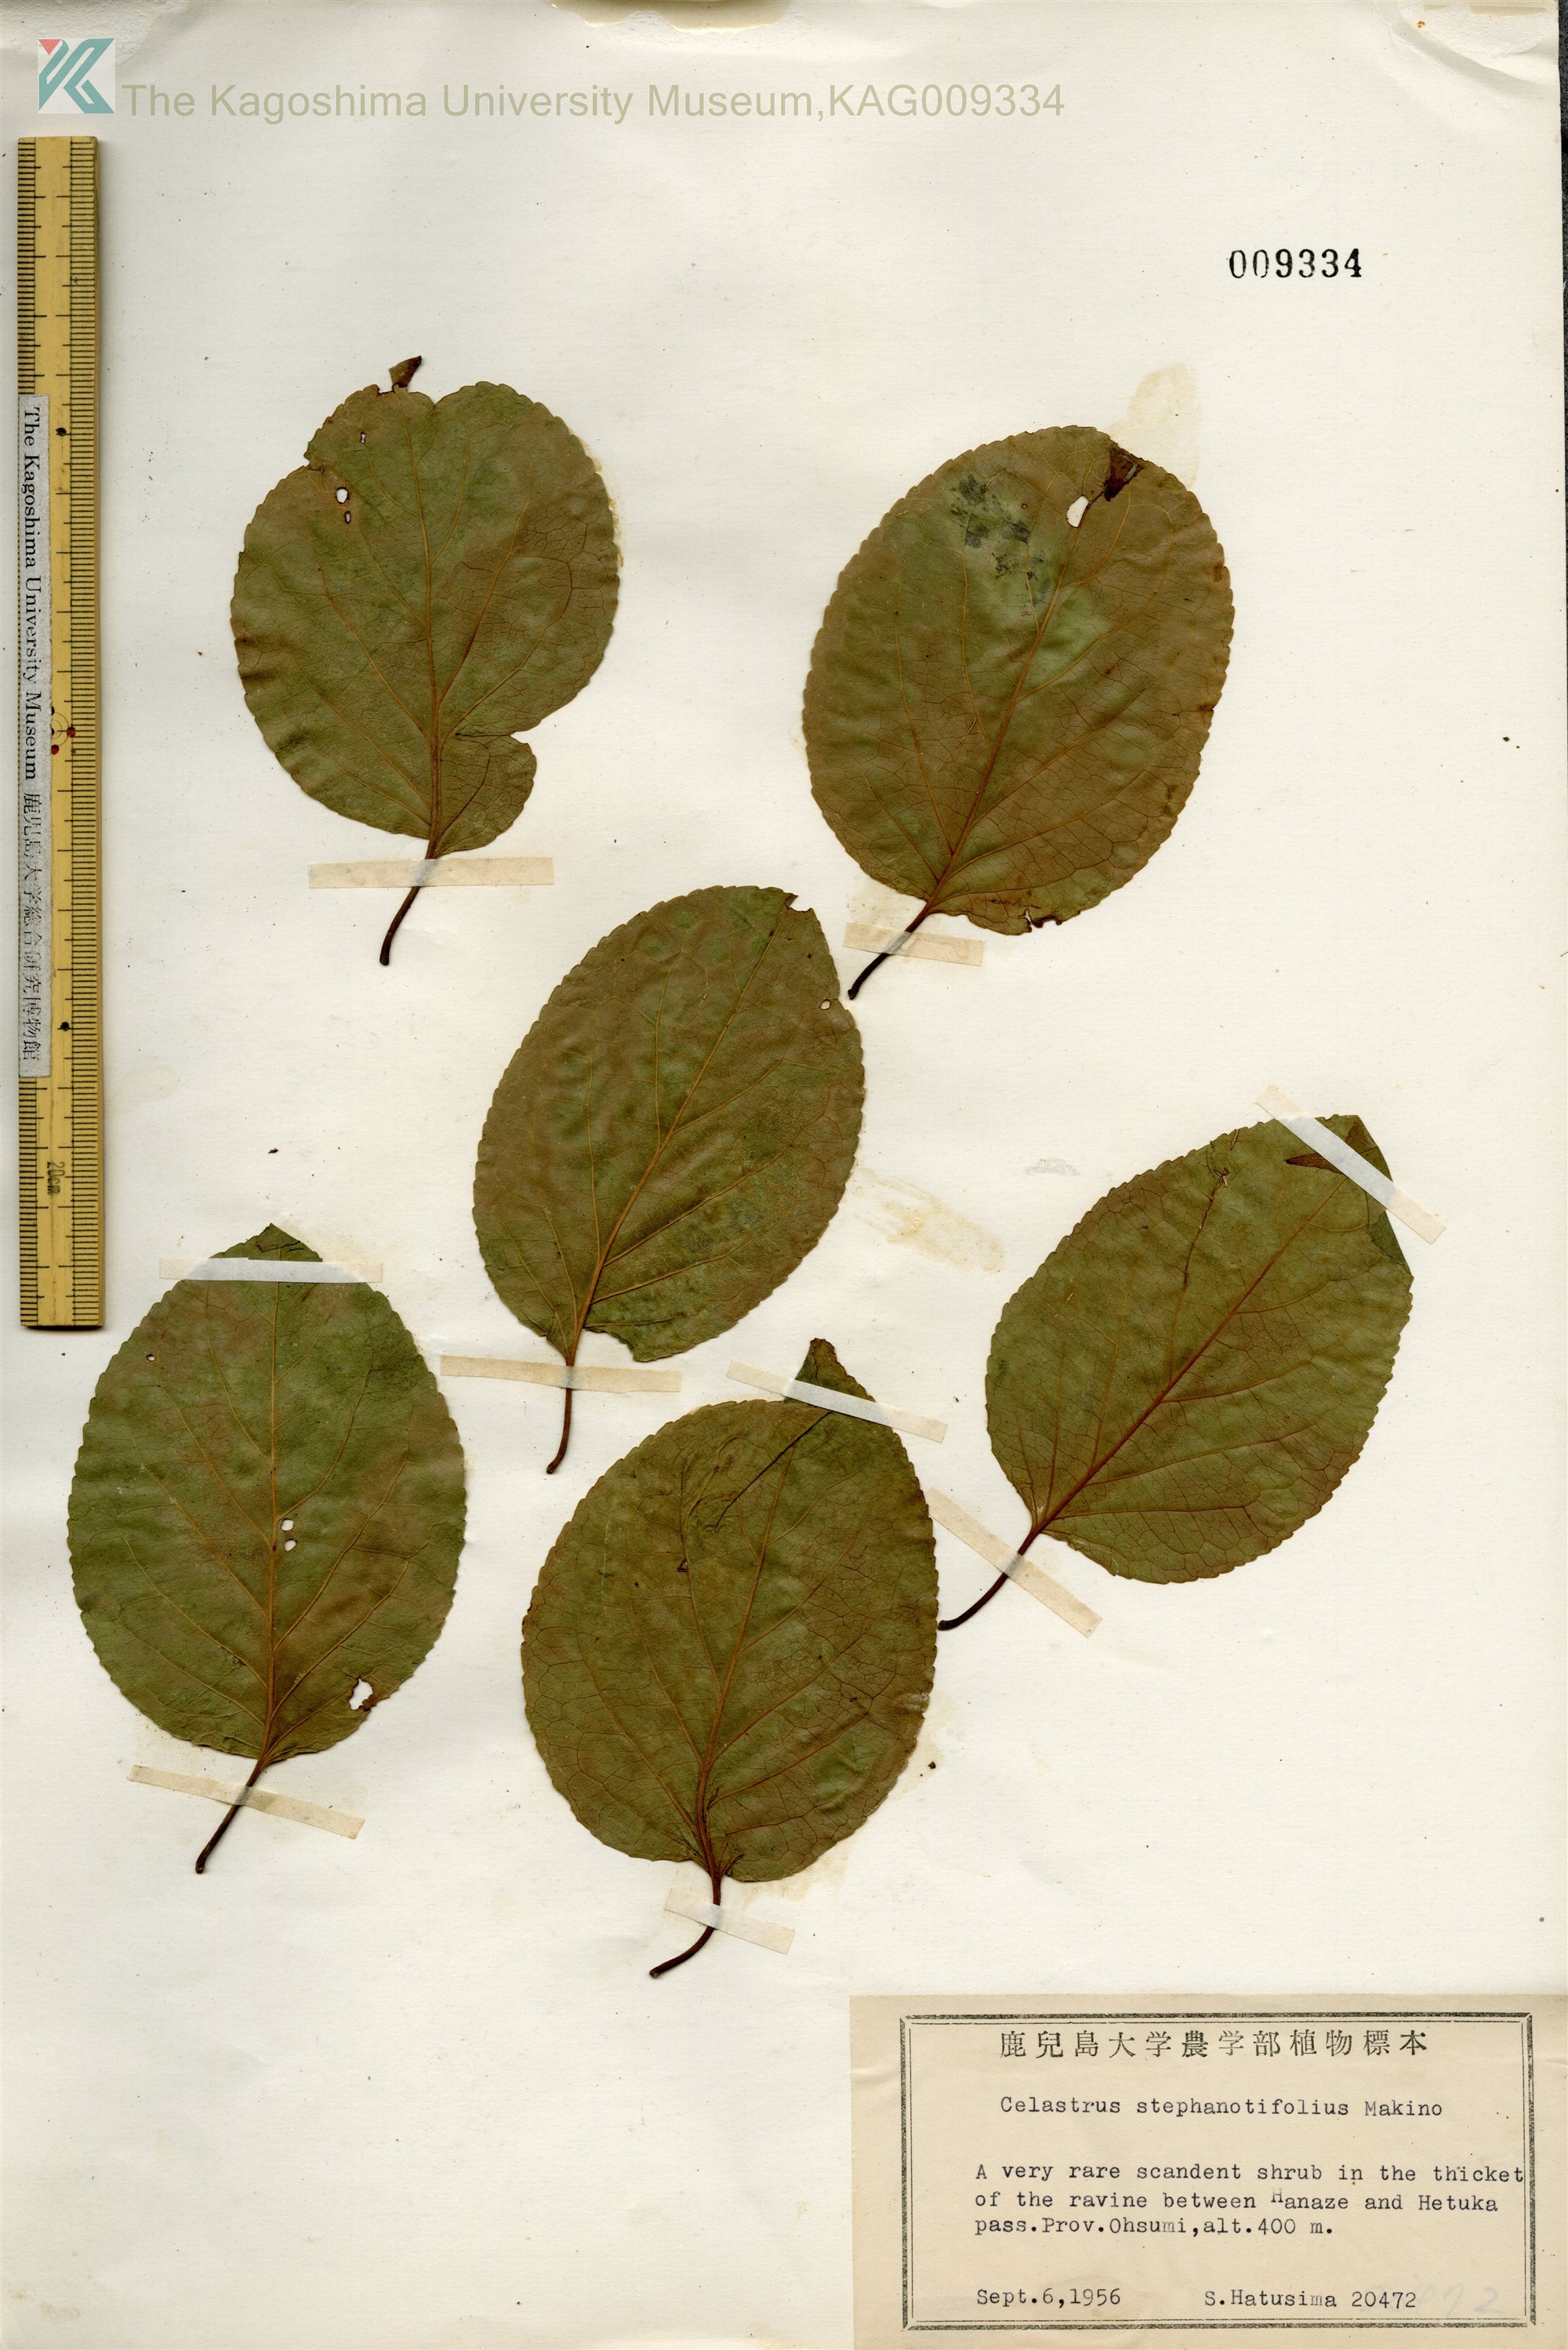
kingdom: Plantae
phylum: Tracheophyta
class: Magnoliopsida
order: Celastrales
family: Celastraceae
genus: Celastrus
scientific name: Celastrus stephanotifolius
